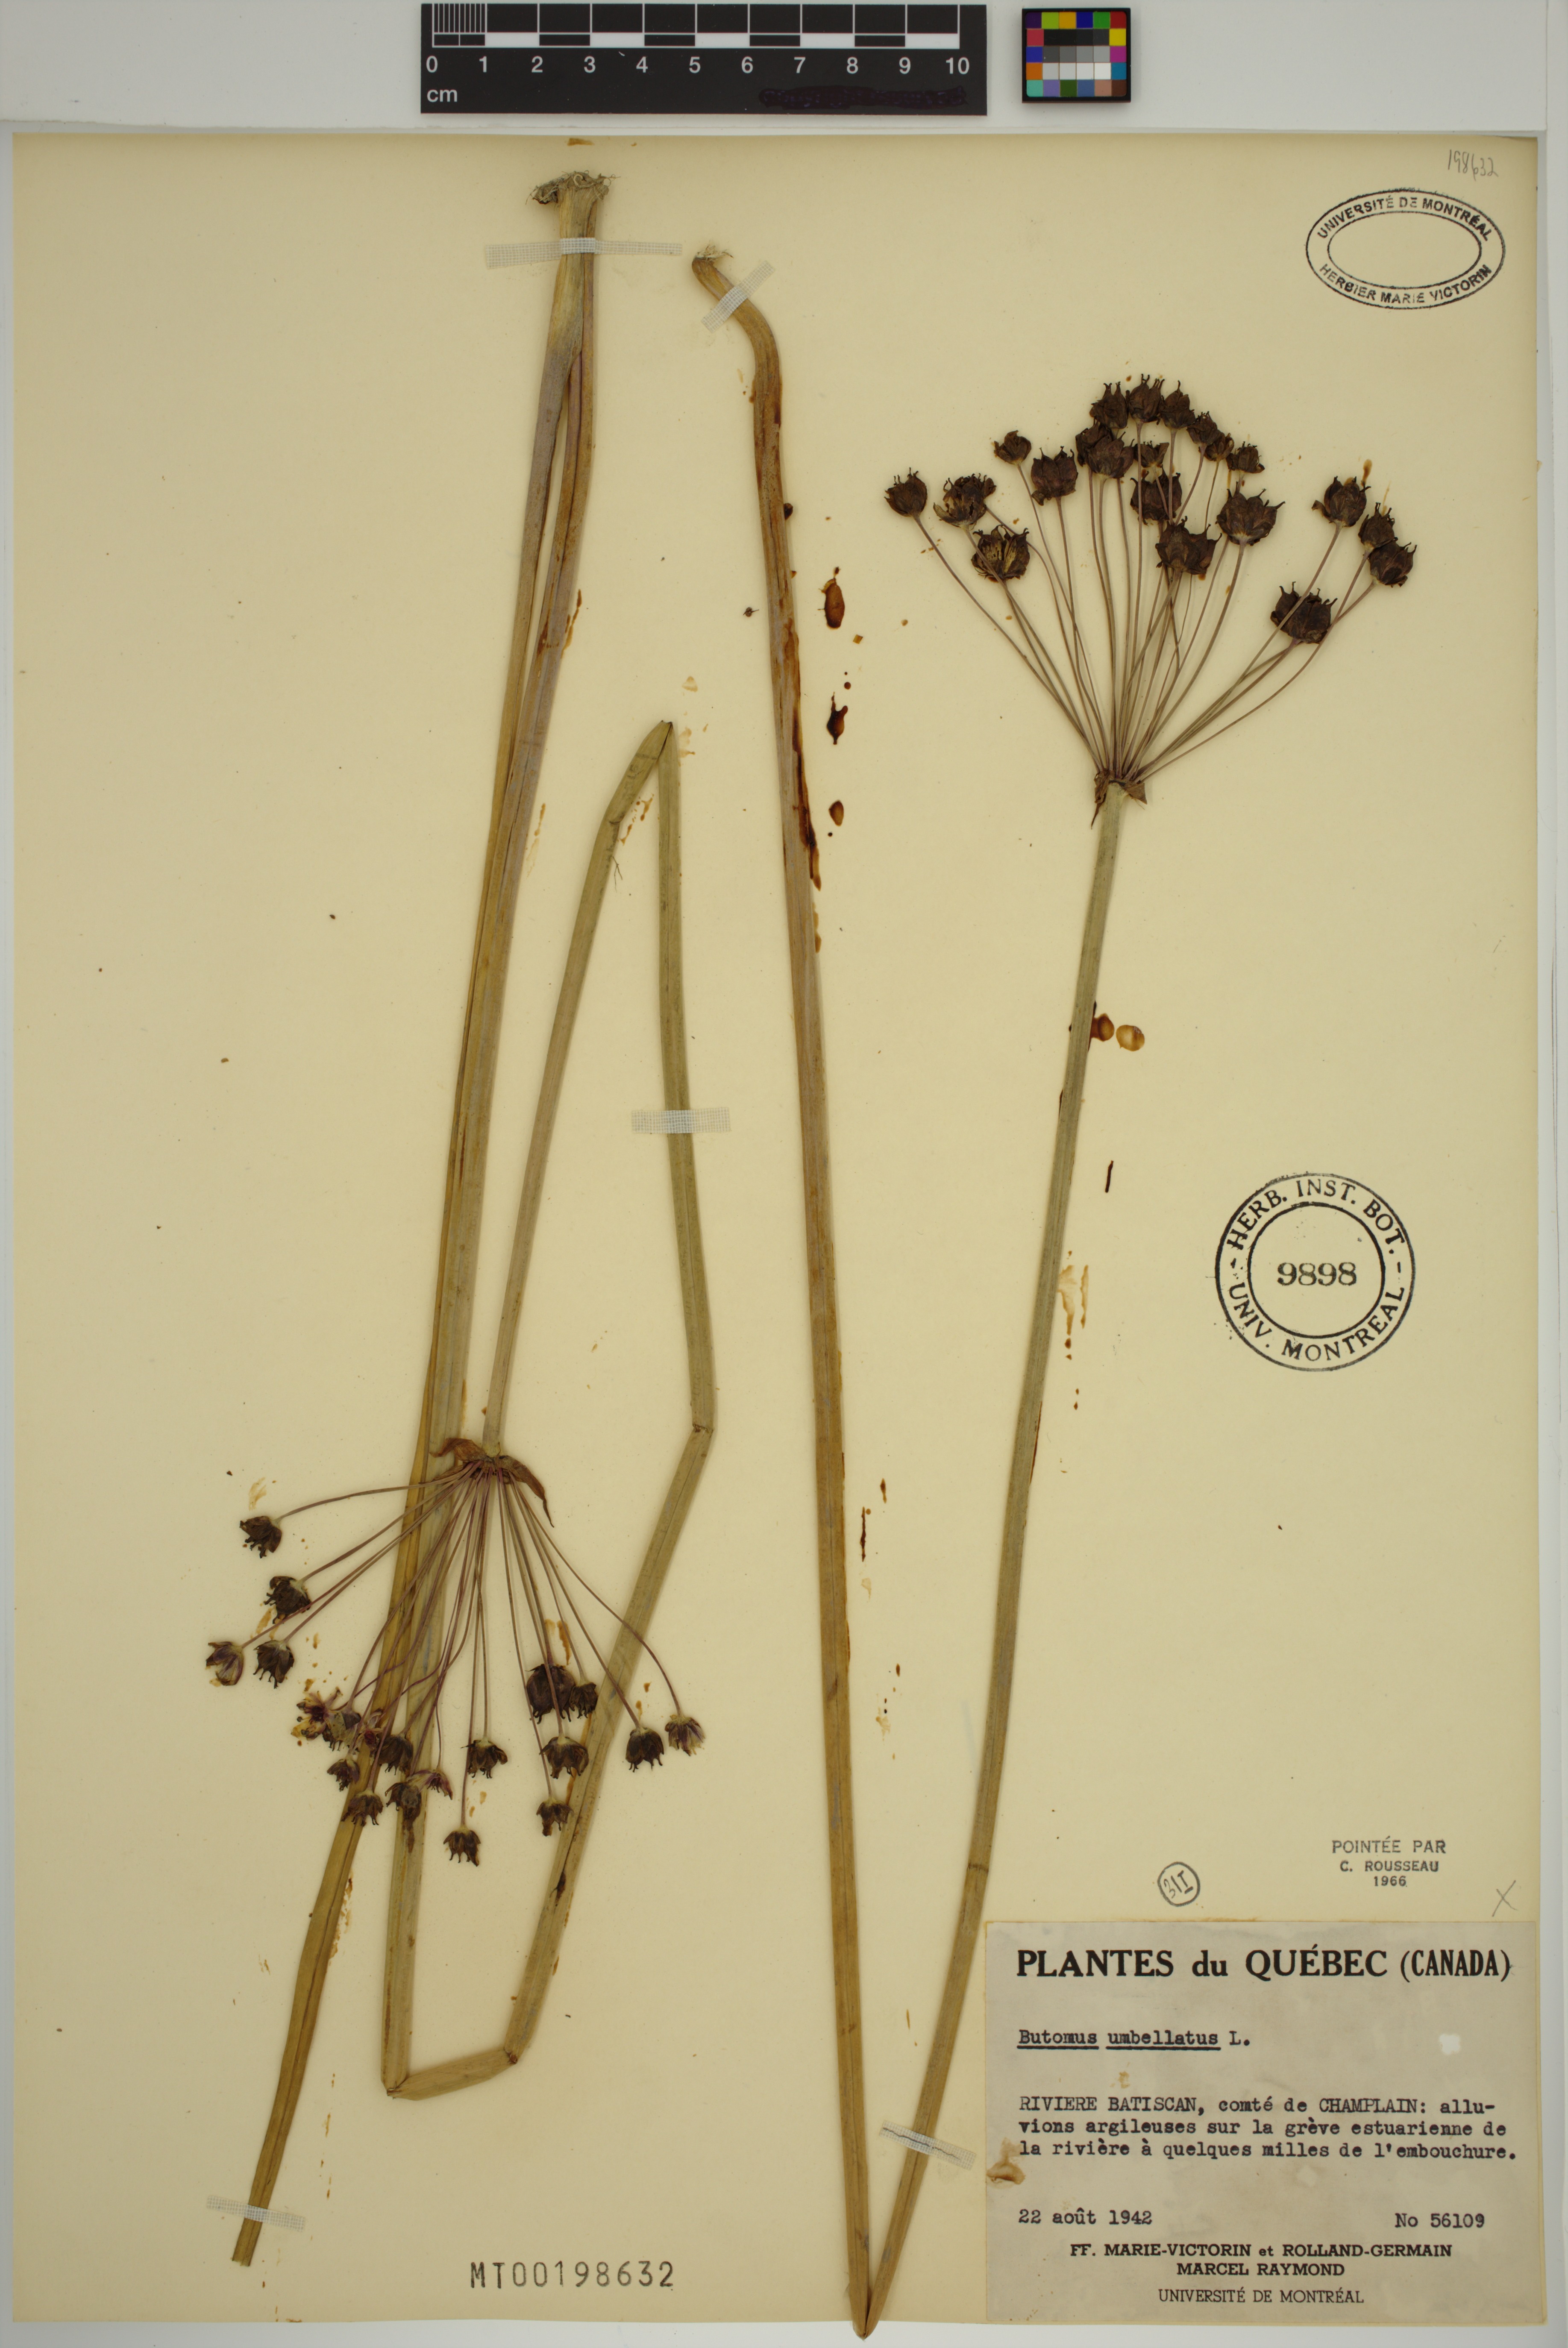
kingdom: Plantae
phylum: Tracheophyta
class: Liliopsida
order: Alismatales
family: Butomaceae
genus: Butomus
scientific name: Butomus umbellatus
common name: Flowering-rush
